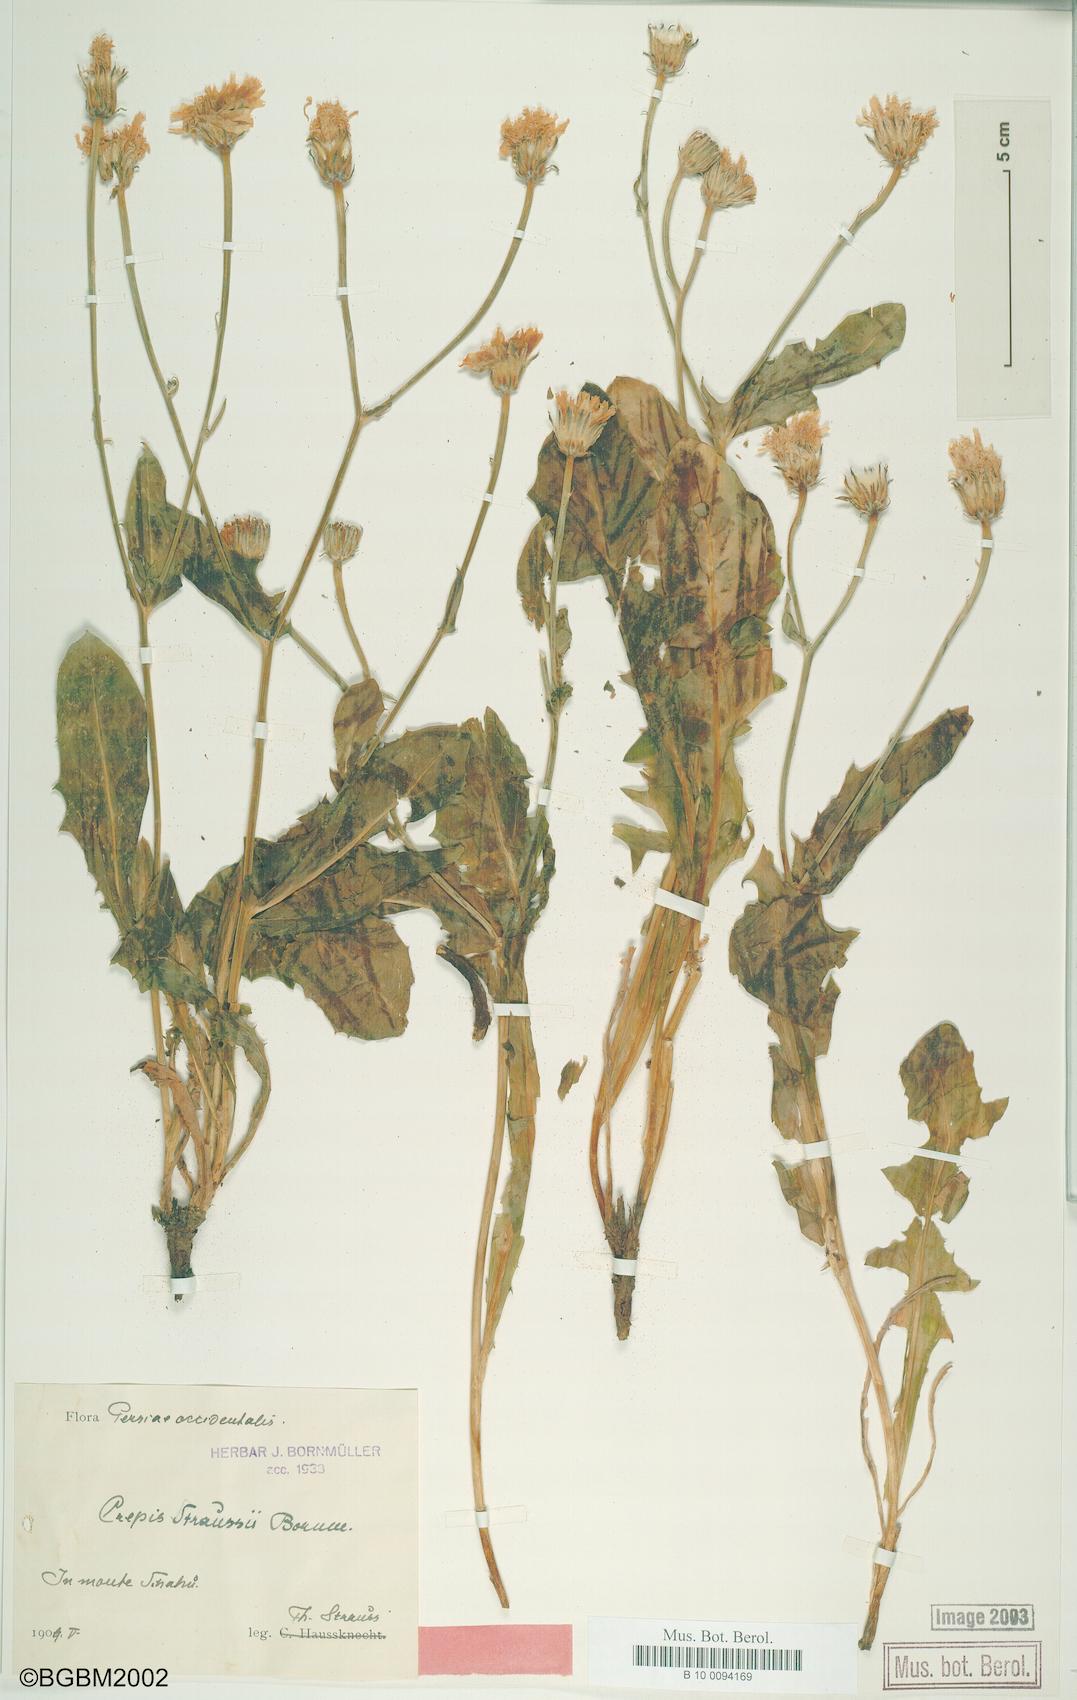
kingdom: Plantae
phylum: Tracheophyta
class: Magnoliopsida
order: Asterales
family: Asteraceae
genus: Crepis
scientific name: Crepis straussii
